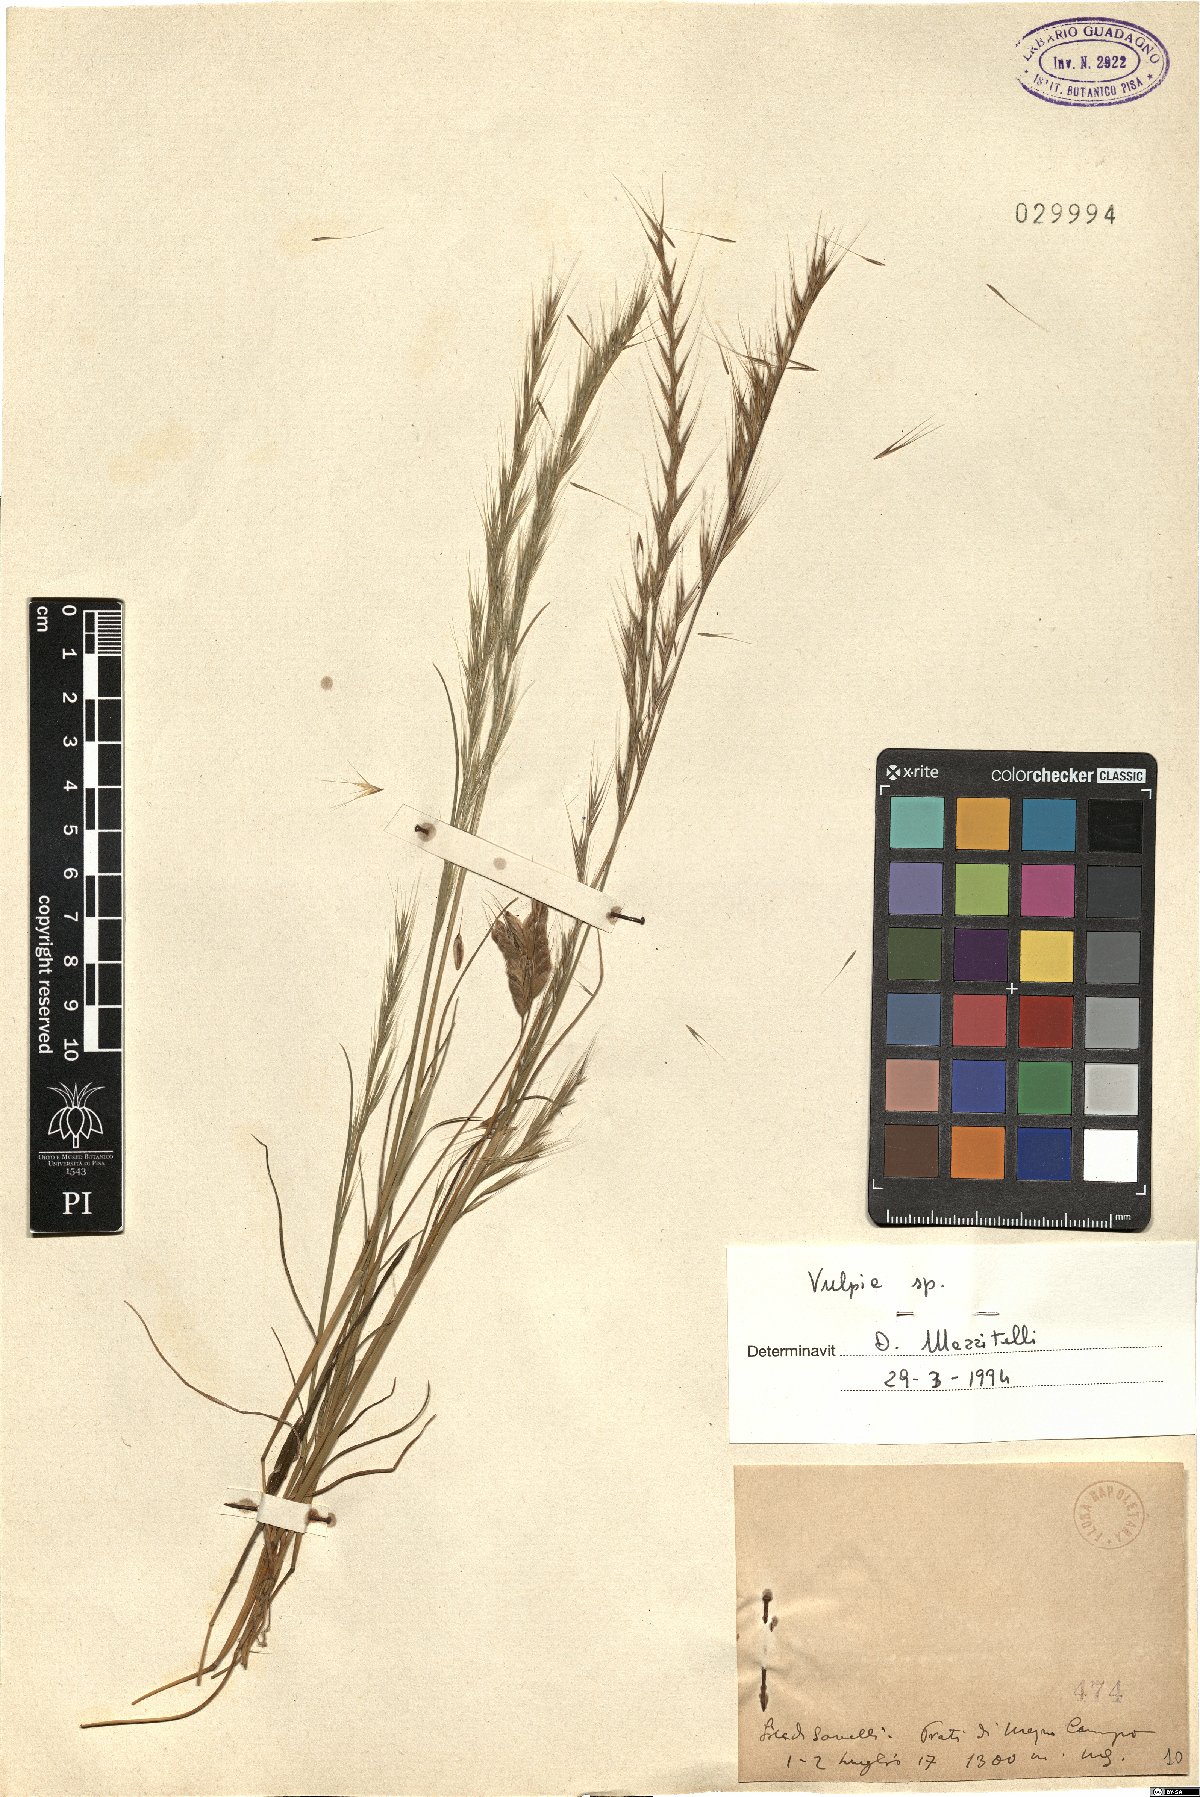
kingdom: Plantae
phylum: Tracheophyta
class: Liliopsida
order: Poales
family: Poaceae
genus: Festuca
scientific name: Festuca
